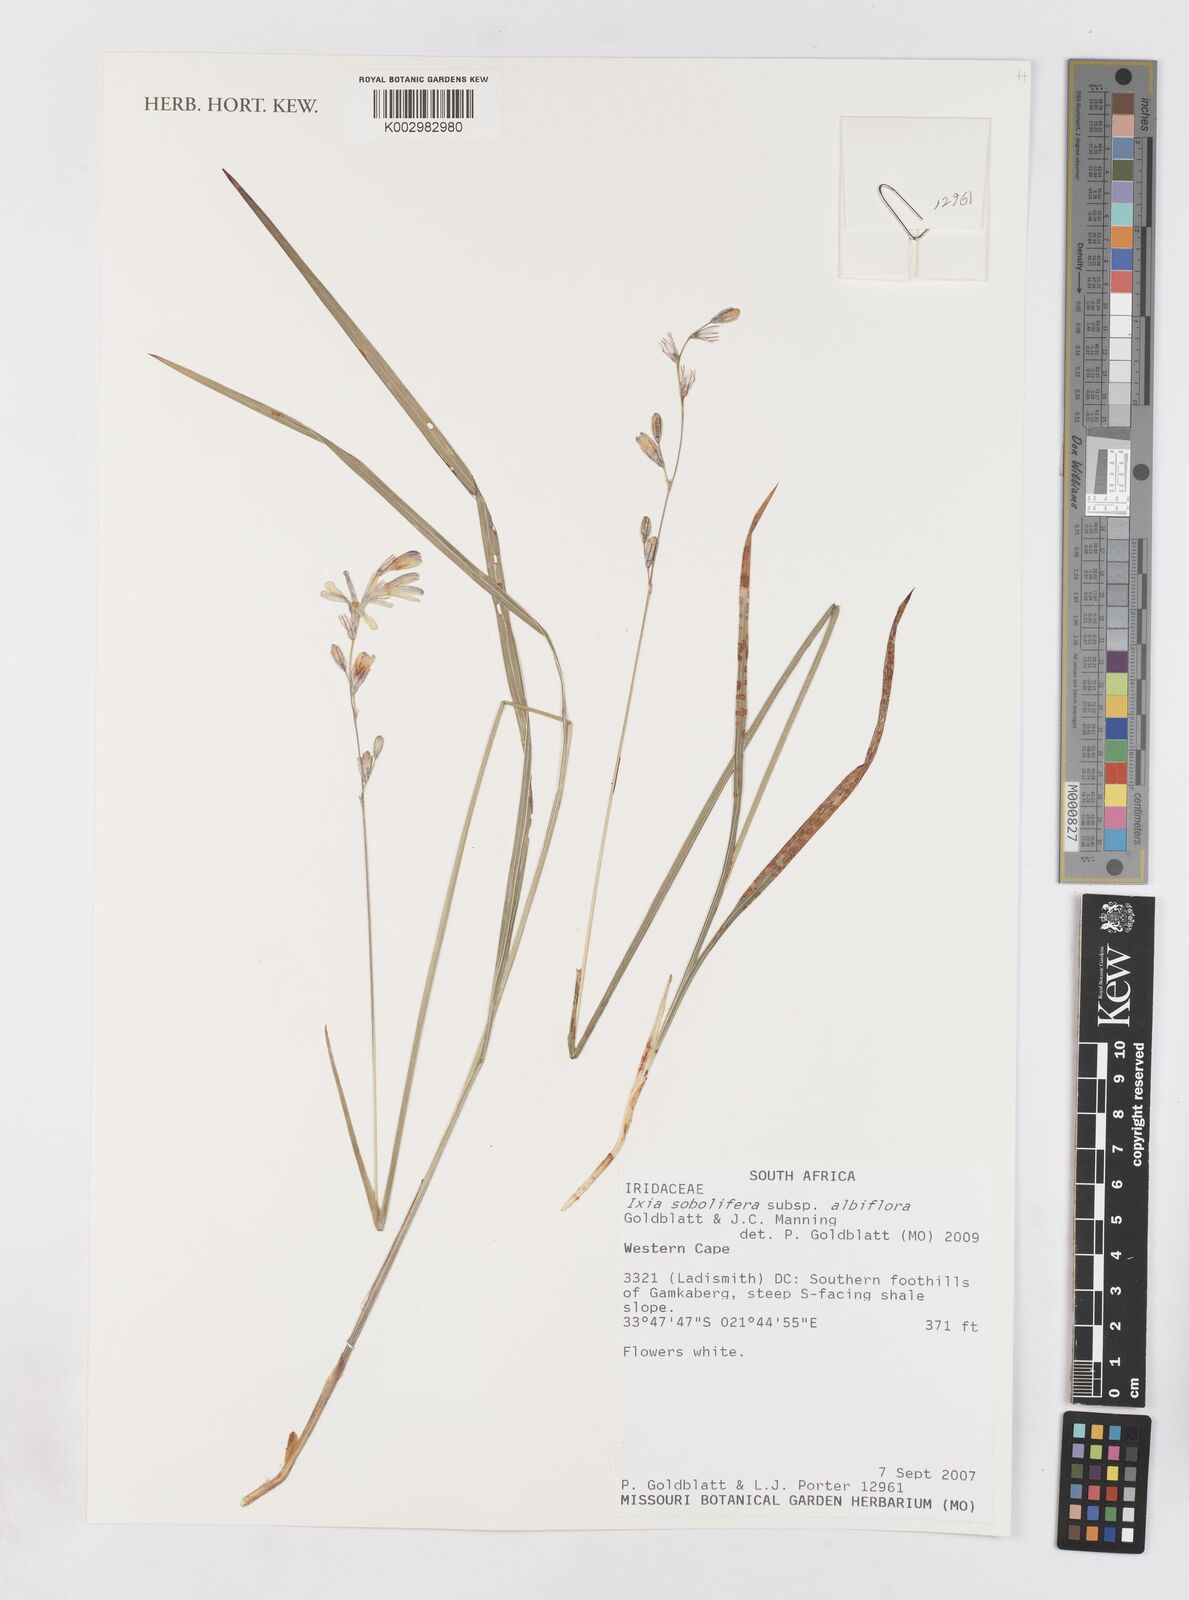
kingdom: Plantae
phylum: Tracheophyta
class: Liliopsida
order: Asparagales
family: Iridaceae
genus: Ixia
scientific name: Ixia sobolifera
